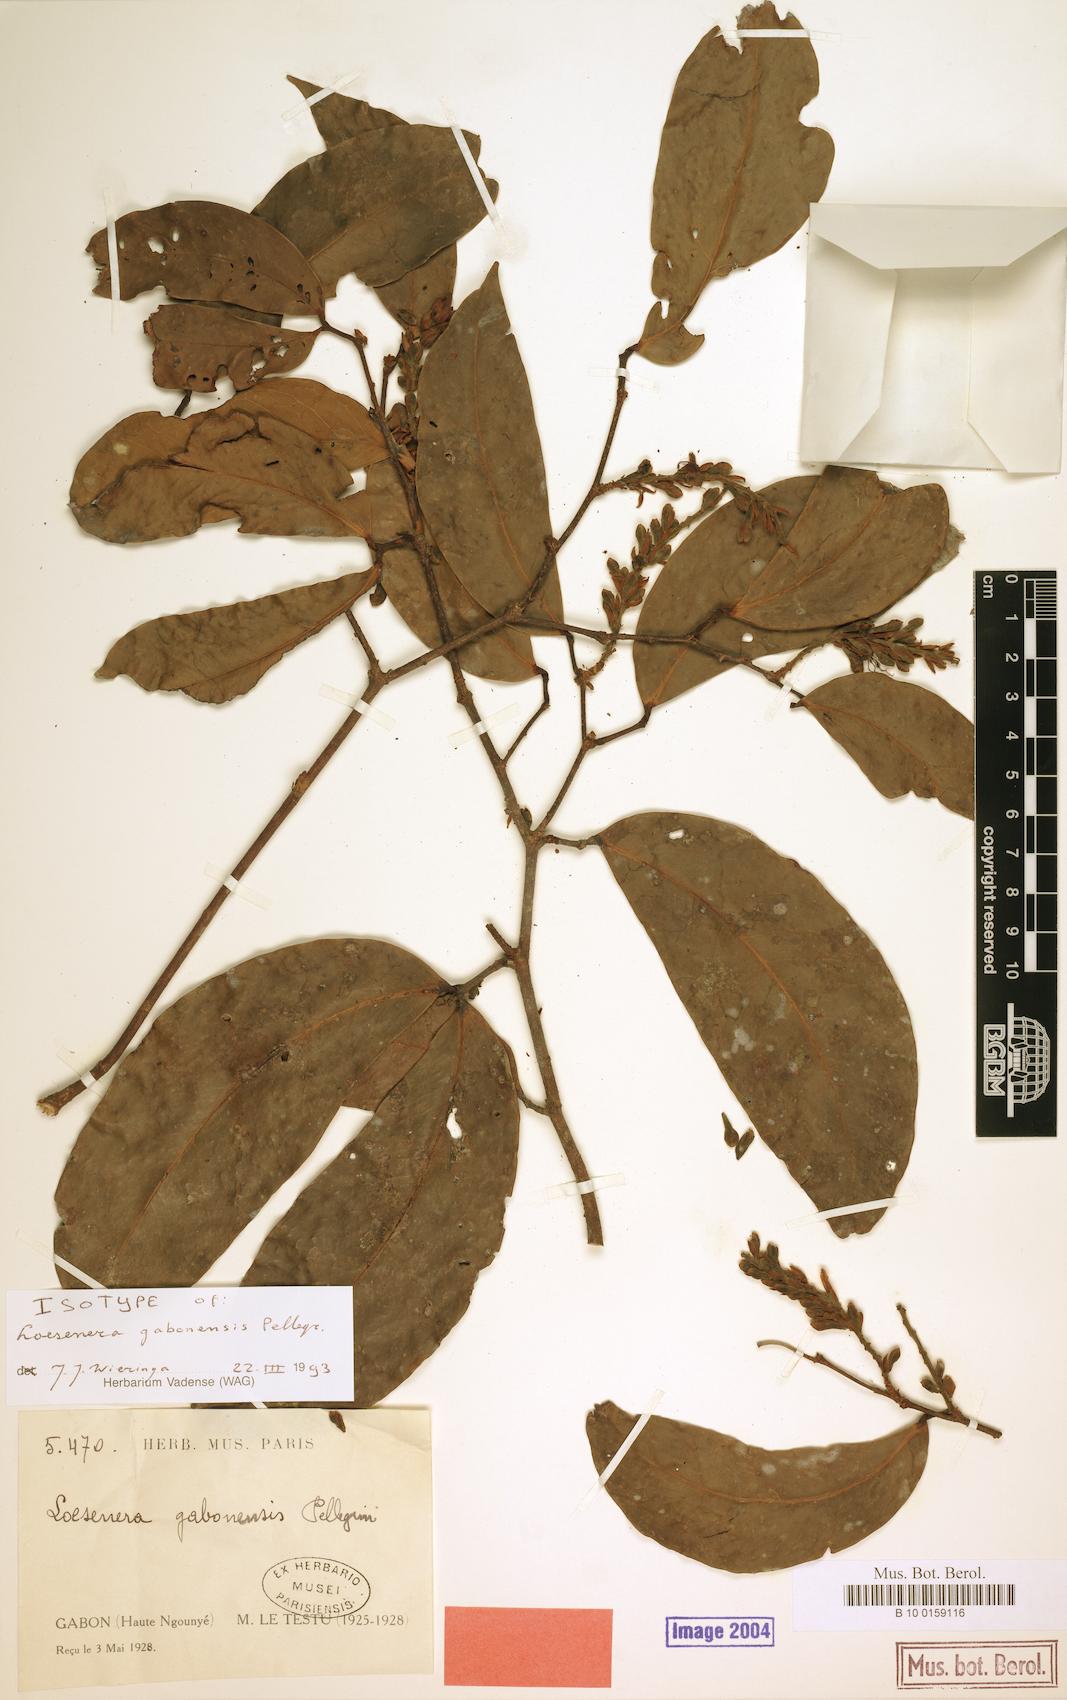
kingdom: Plantae
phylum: Tracheophyta
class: Magnoliopsida
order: Fabales
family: Fabaceae
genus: Loesenera
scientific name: Loesenera gabonensis
